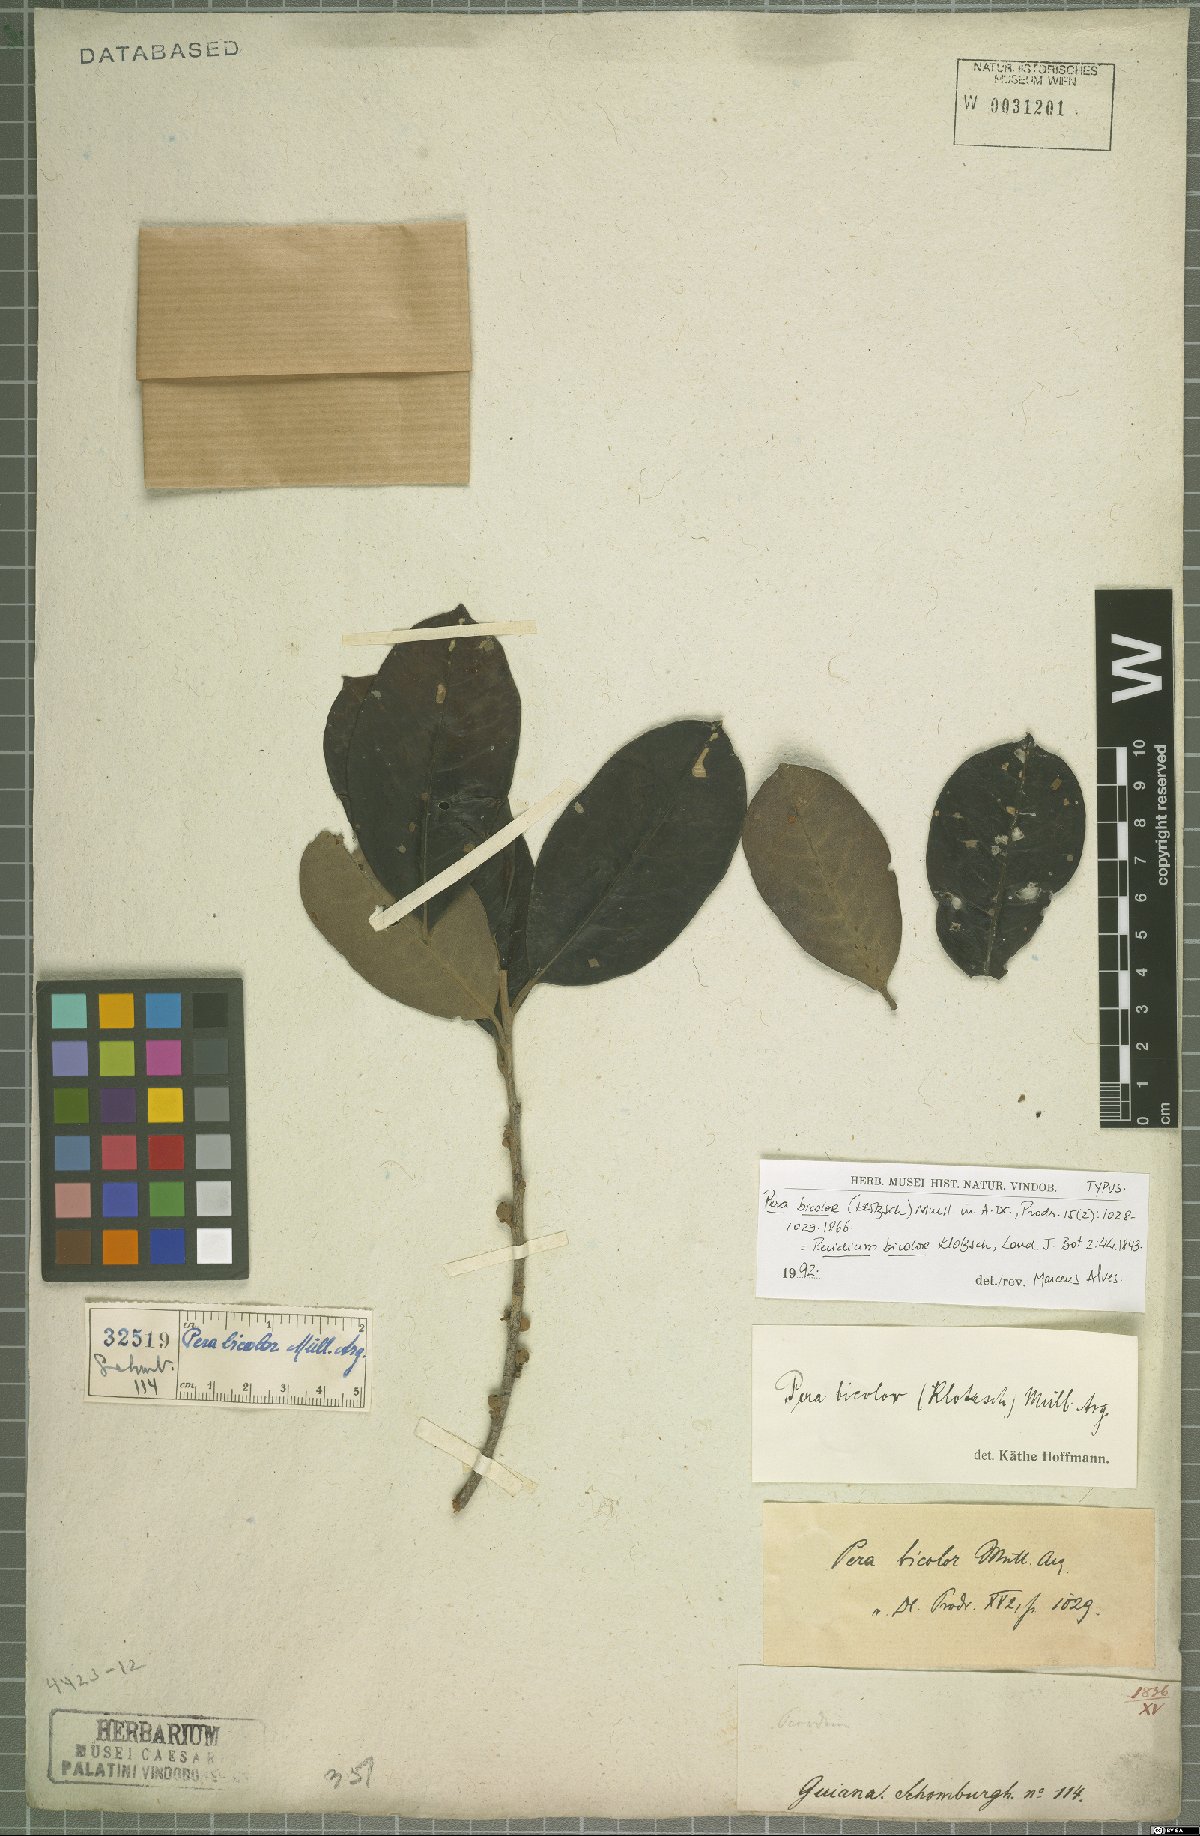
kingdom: Plantae
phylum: Tracheophyta
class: Magnoliopsida
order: Malpighiales
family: Peraceae
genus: Pera
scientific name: Pera bicolor
